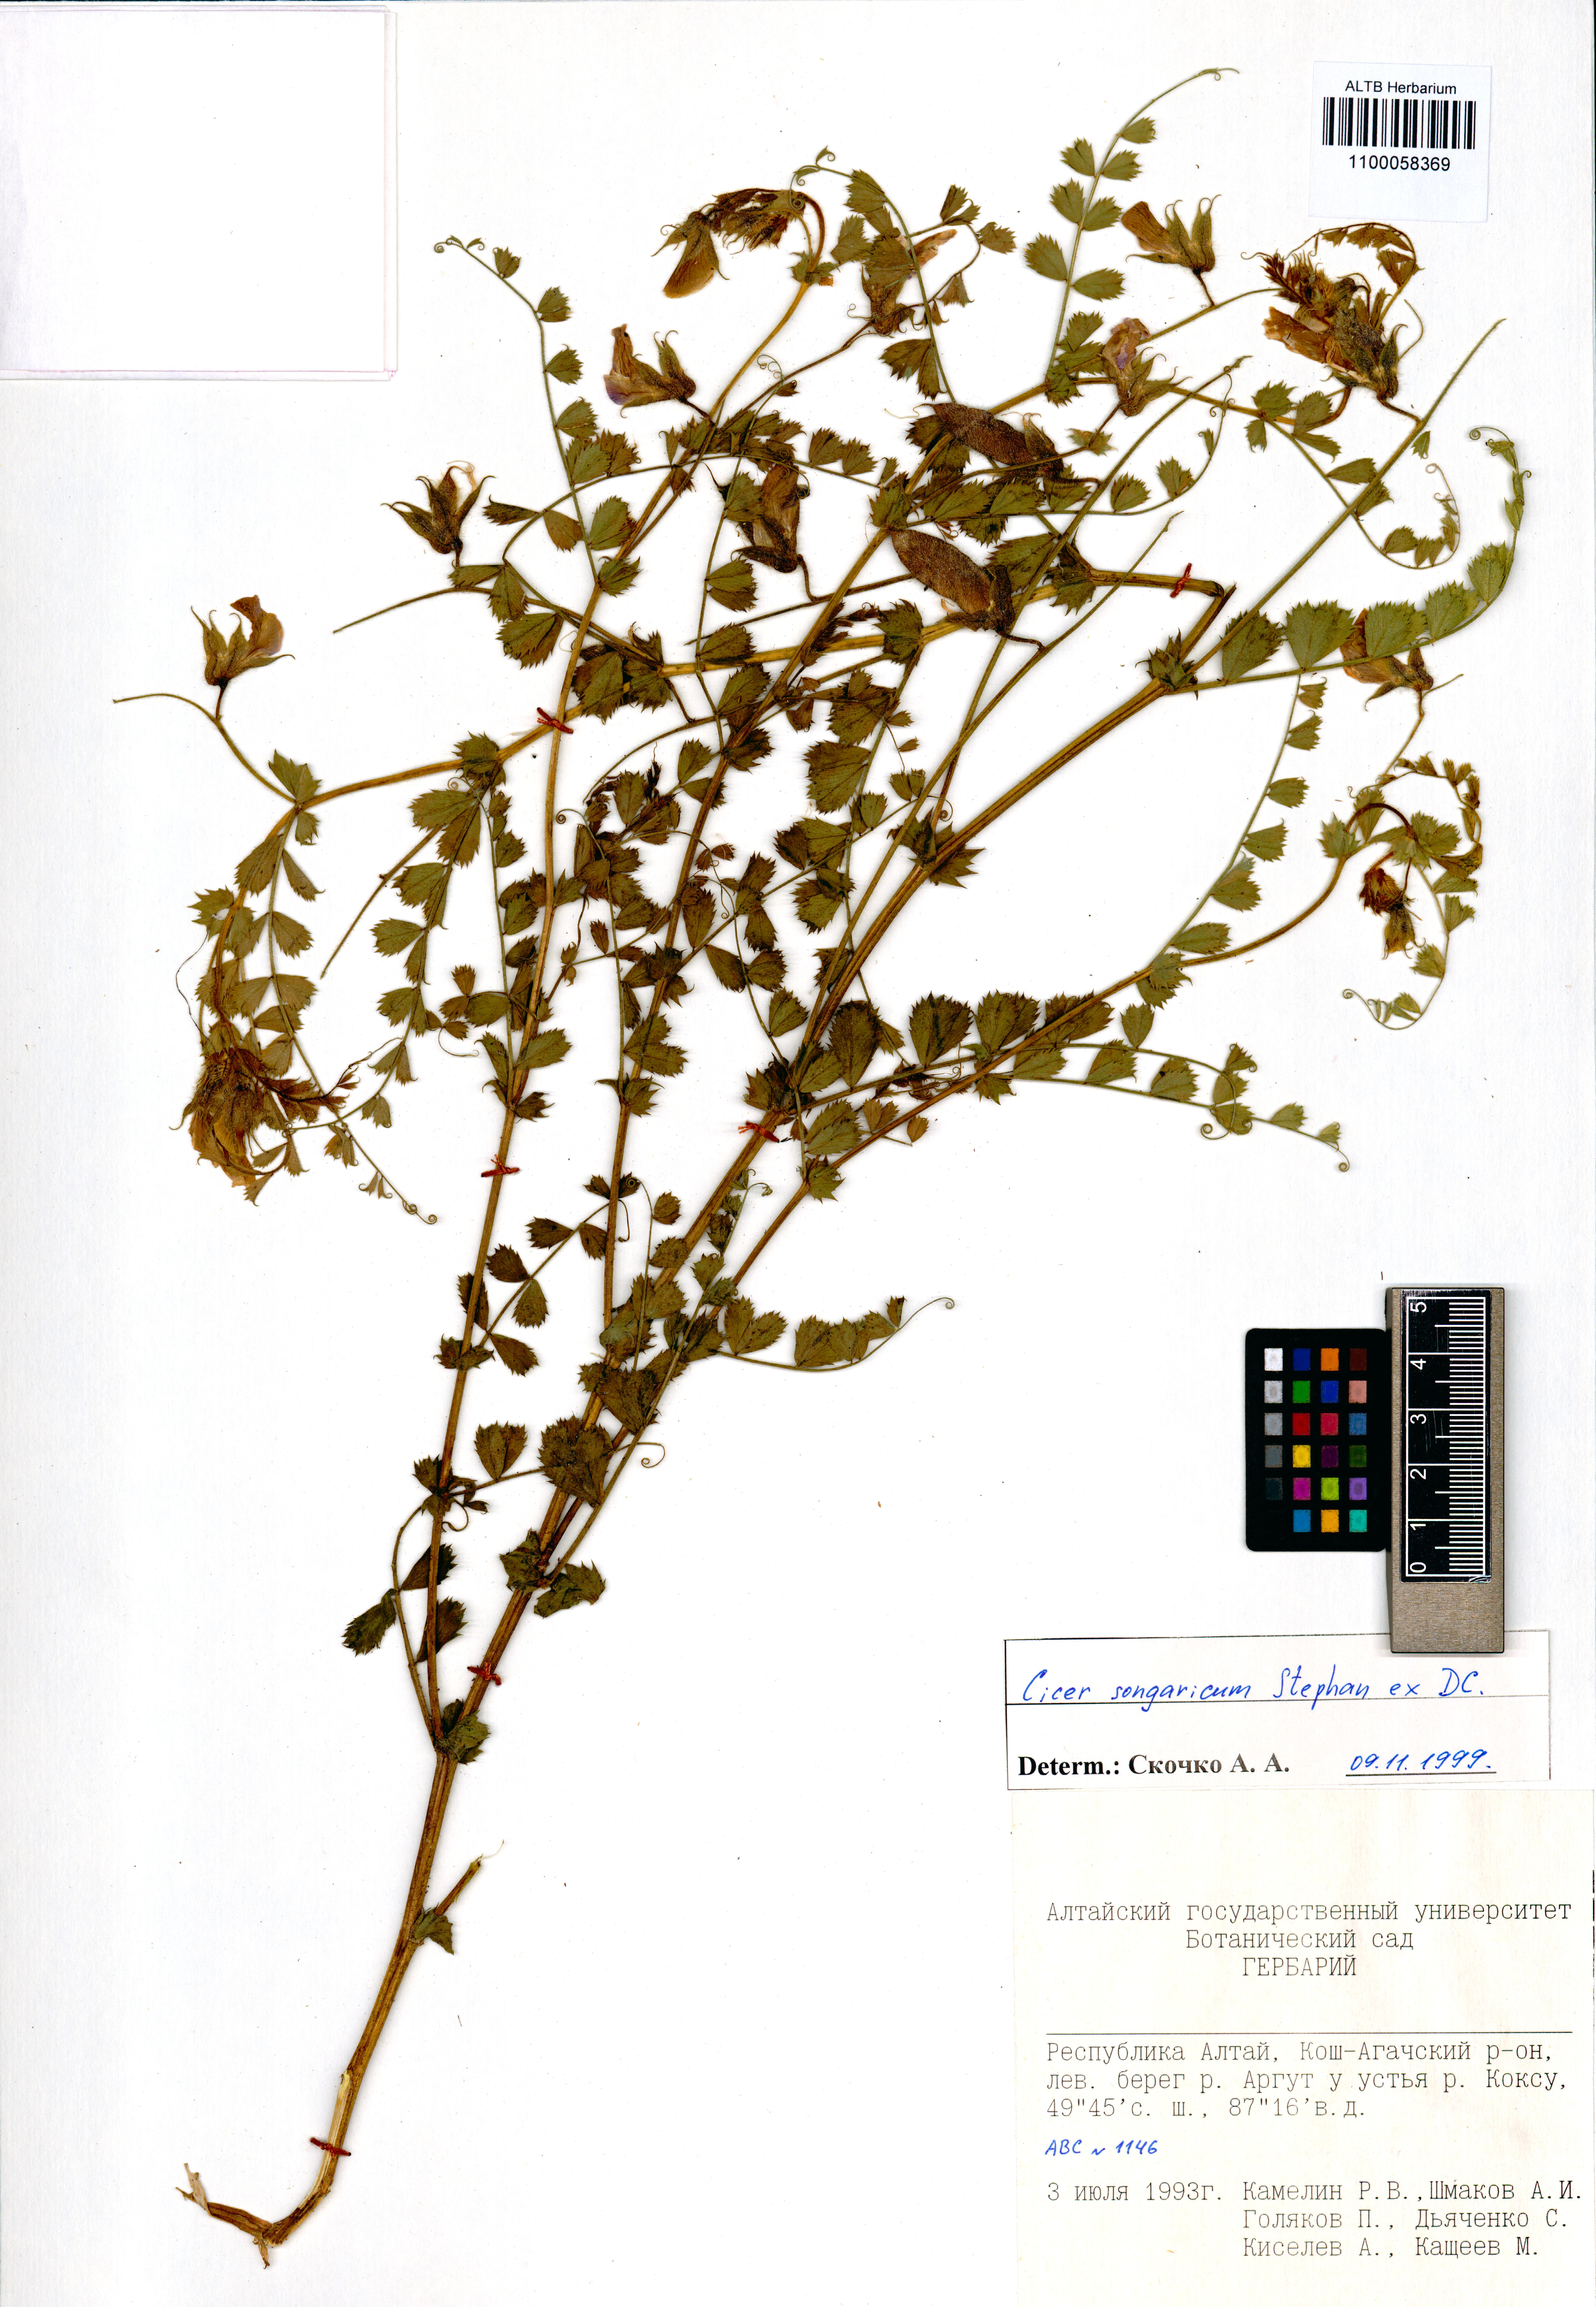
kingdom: Plantae
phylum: Tracheophyta
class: Magnoliopsida
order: Fabales
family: Fabaceae
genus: Cicer
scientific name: Cicer songaricum
